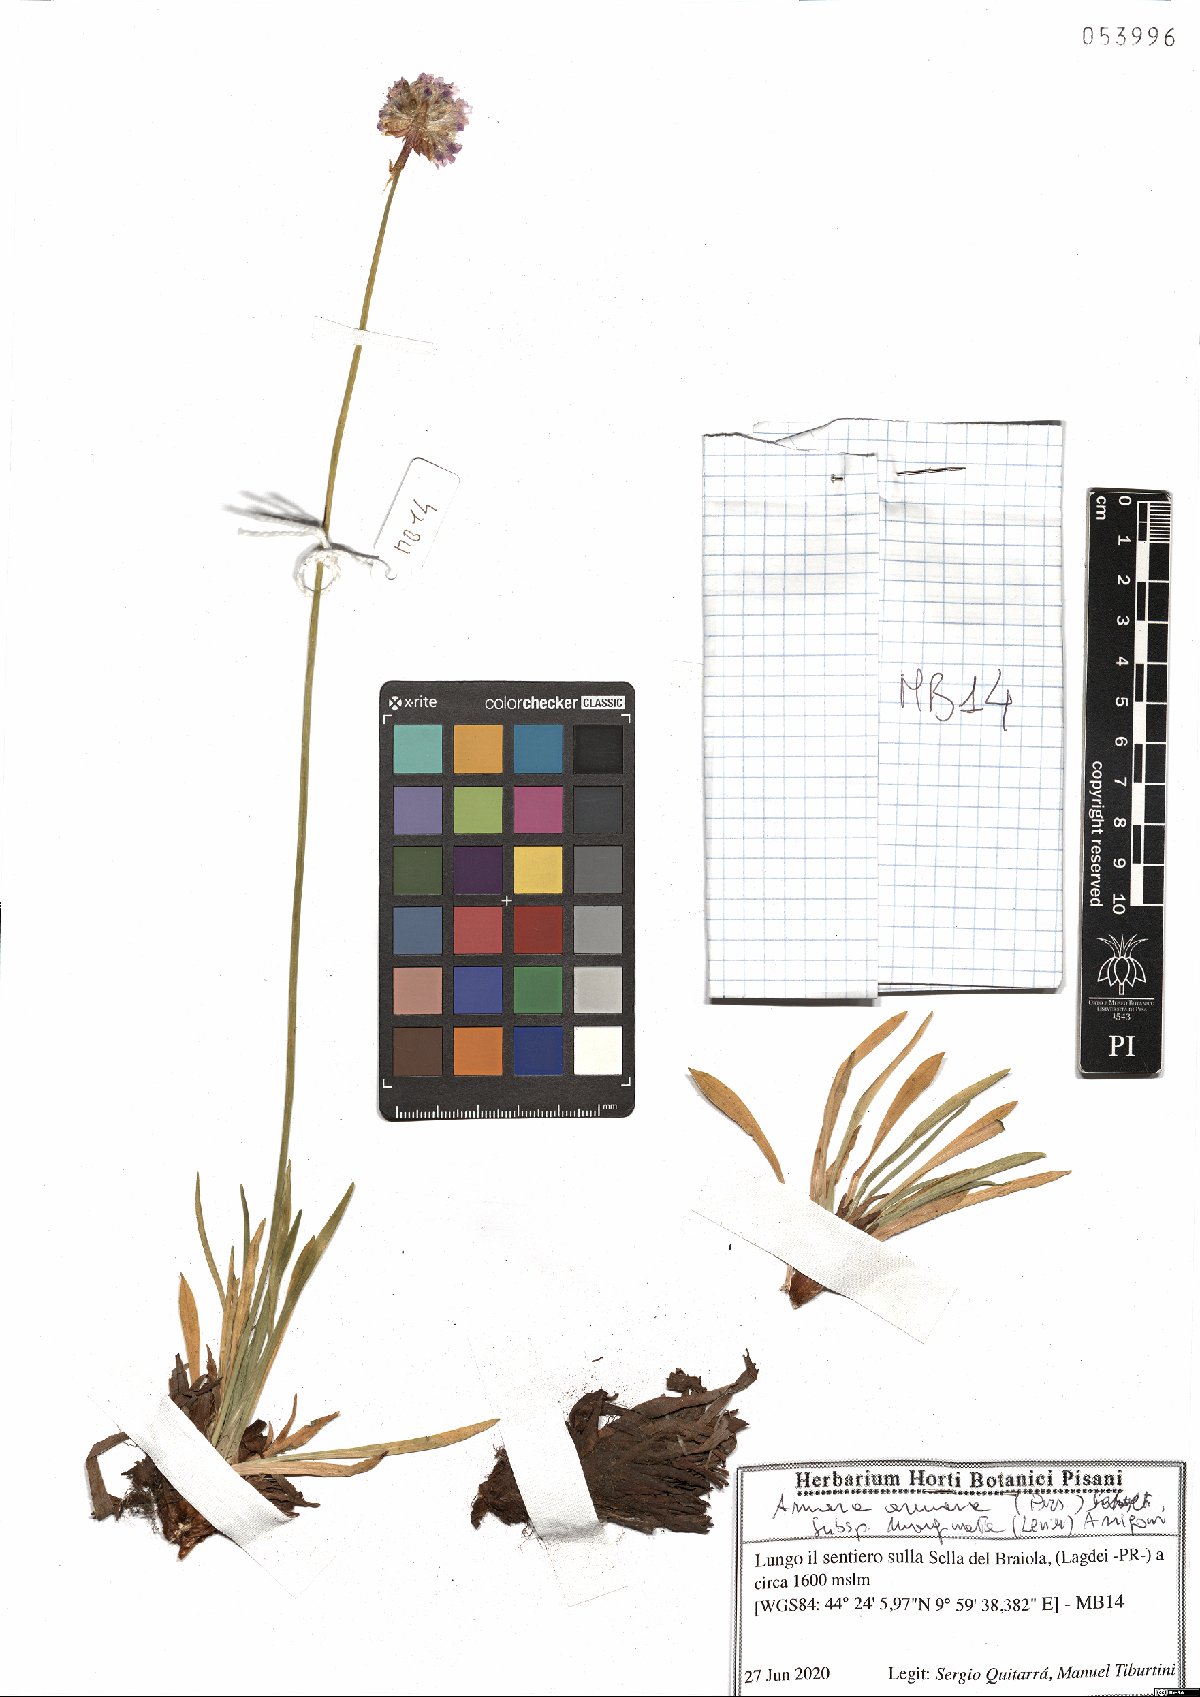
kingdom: Plantae
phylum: Tracheophyta
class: Magnoliopsida
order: Caryophyllales
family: Plumbaginaceae
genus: Armeria
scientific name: Armeria arenaria
